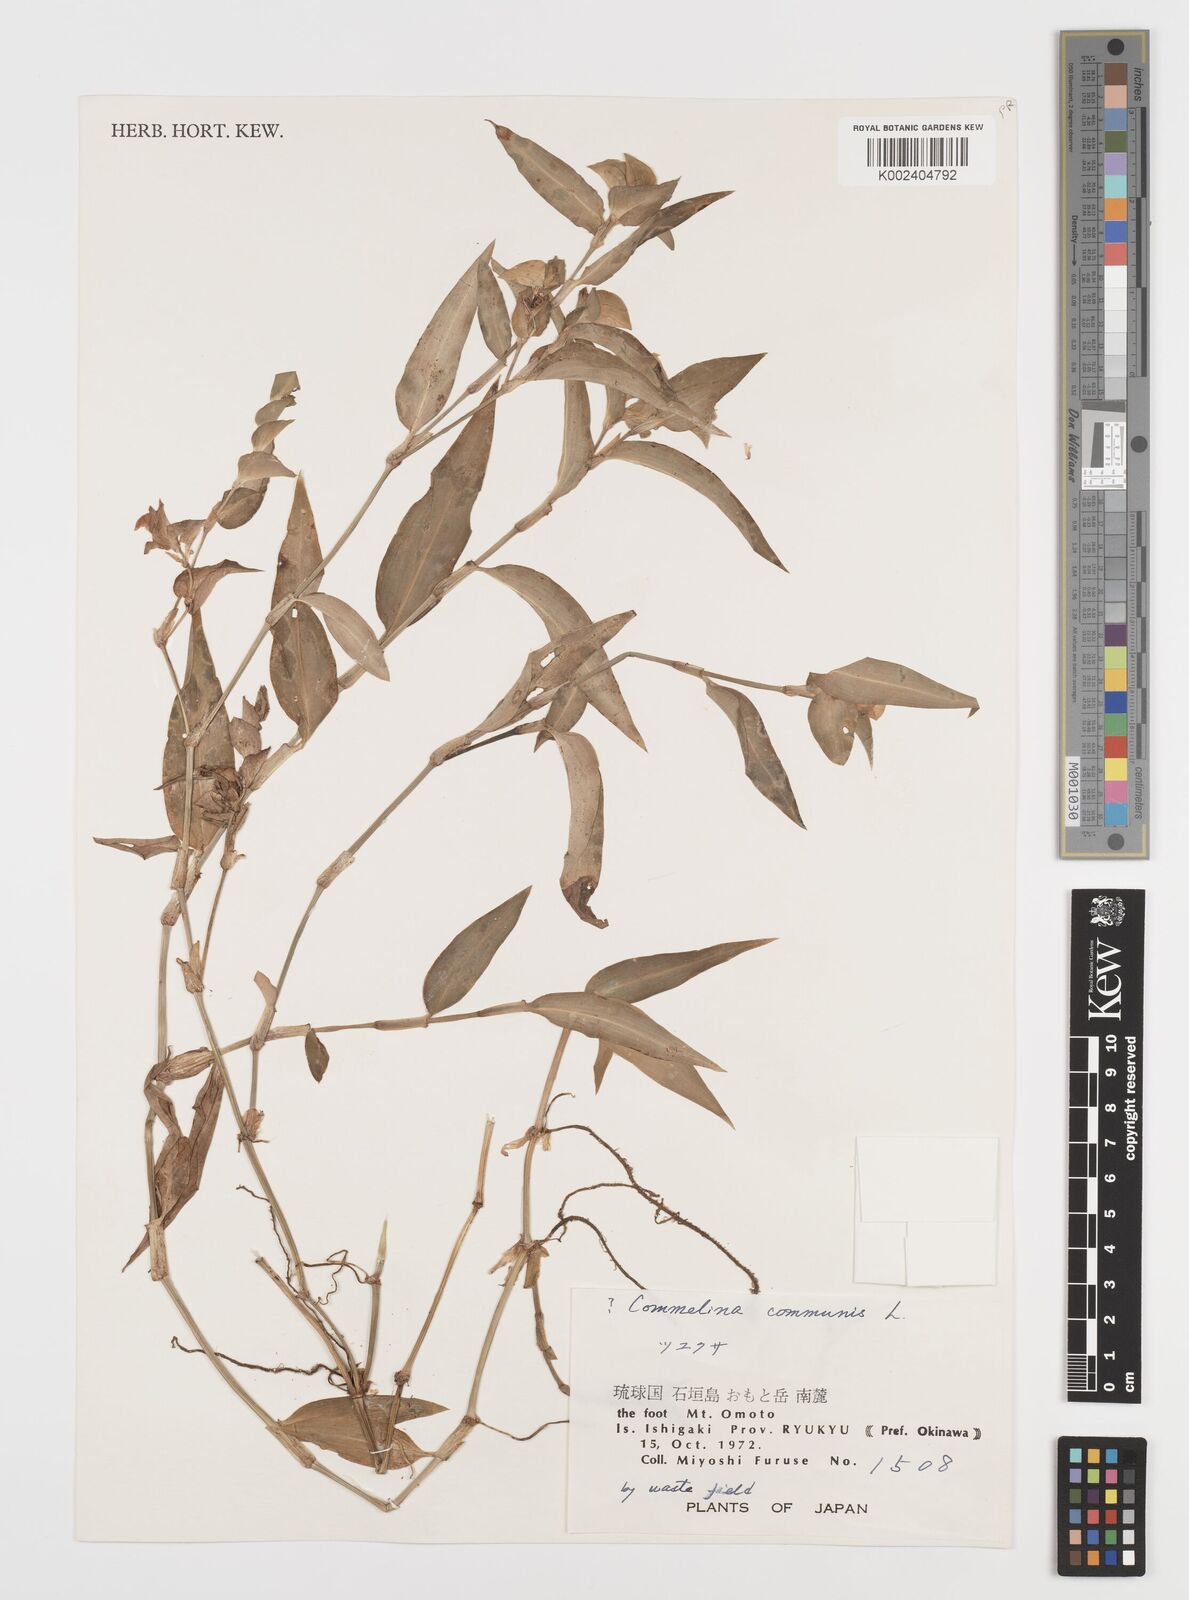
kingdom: Plantae
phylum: Tracheophyta
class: Liliopsida
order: Commelinales
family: Commelinaceae
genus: Commelina
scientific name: Commelina communis
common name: Asiatic dayflower
